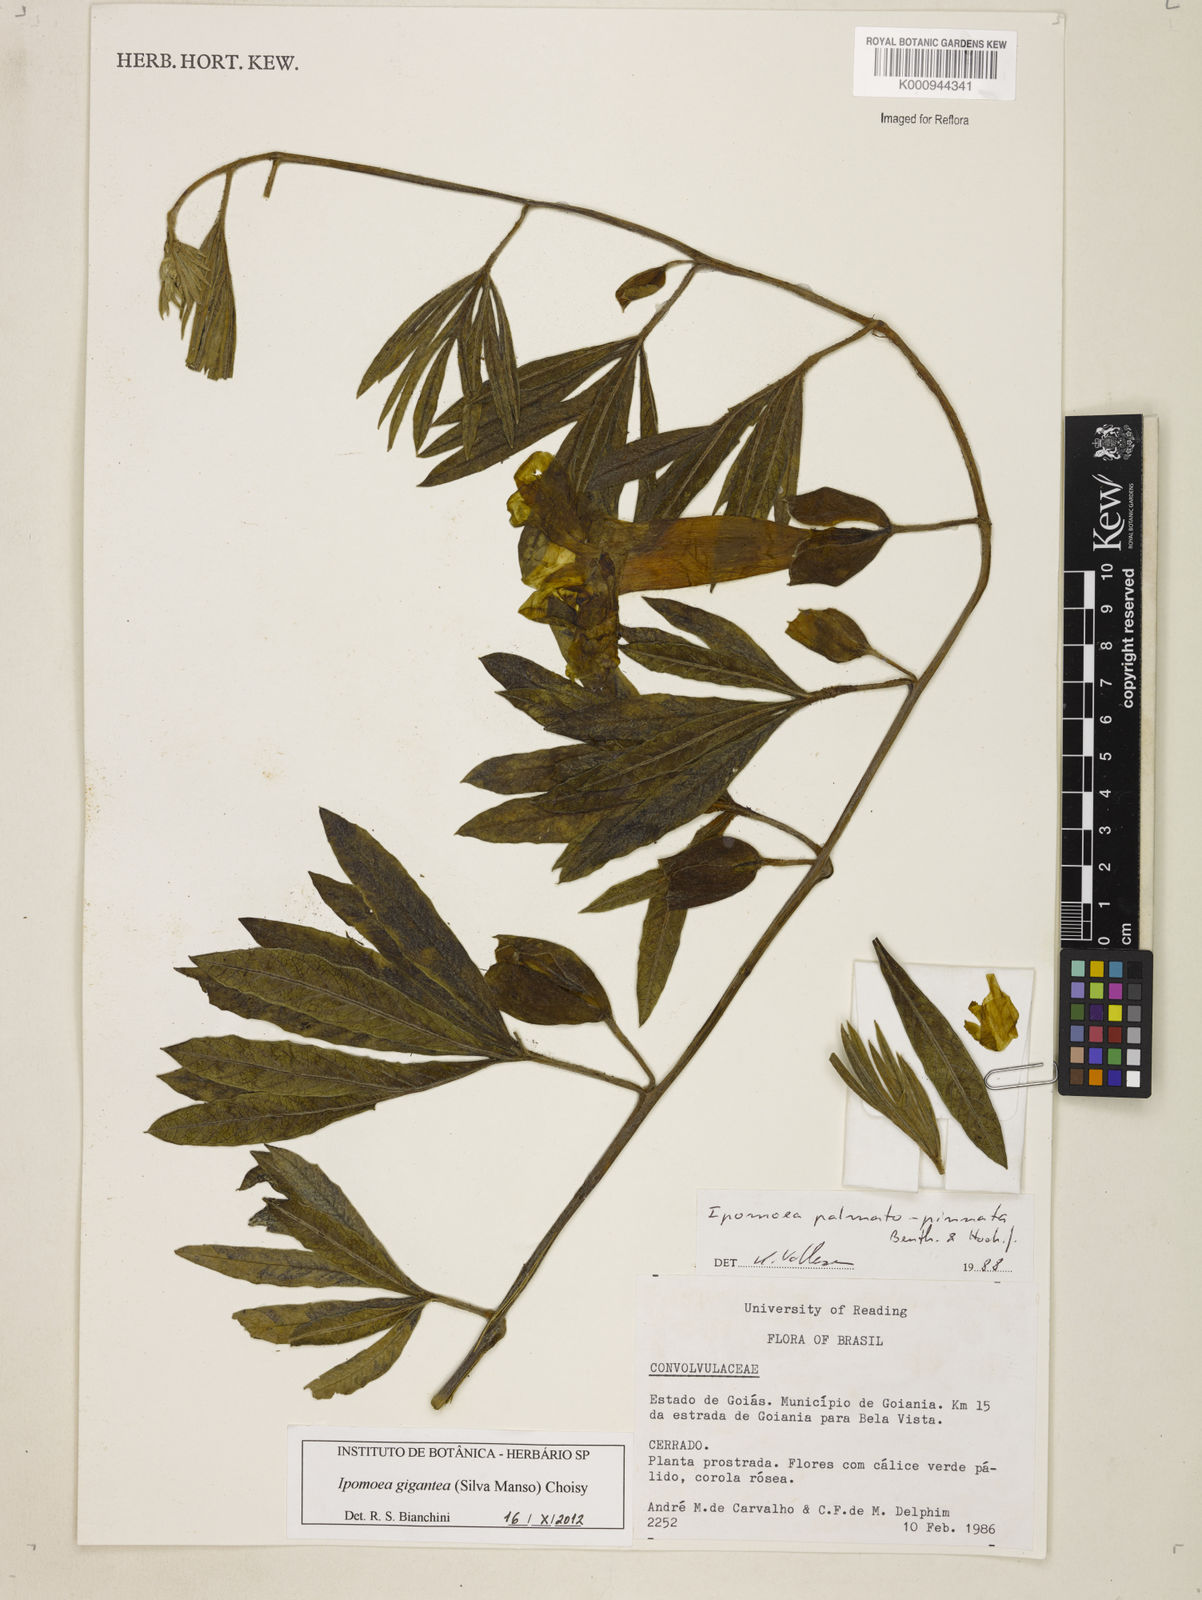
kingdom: Plantae
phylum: Tracheophyta
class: Magnoliopsida
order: Solanales
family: Convolvulaceae
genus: Ipomoea
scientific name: Ipomoea gigantea
